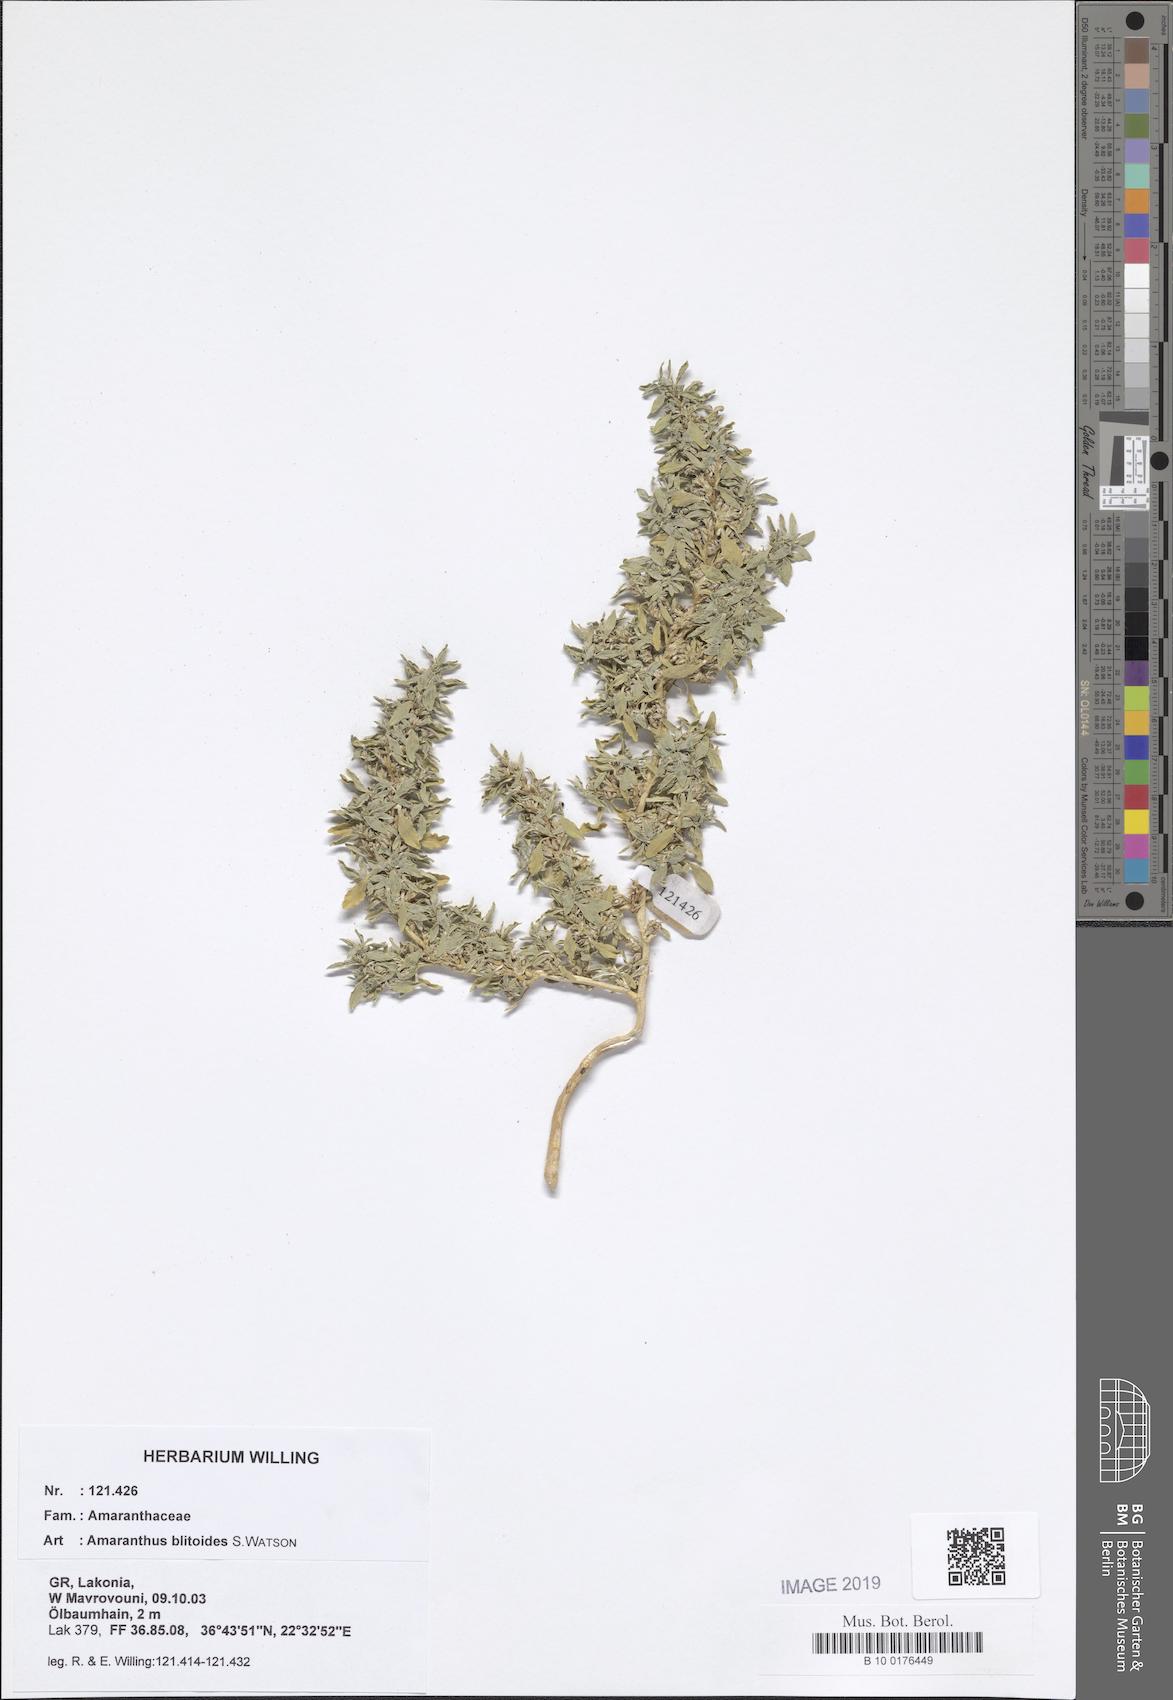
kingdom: Plantae
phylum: Tracheophyta
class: Magnoliopsida
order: Caryophyllales
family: Amaranthaceae
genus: Amaranthus
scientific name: Amaranthus blitoides
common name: Prostrate pigweed
